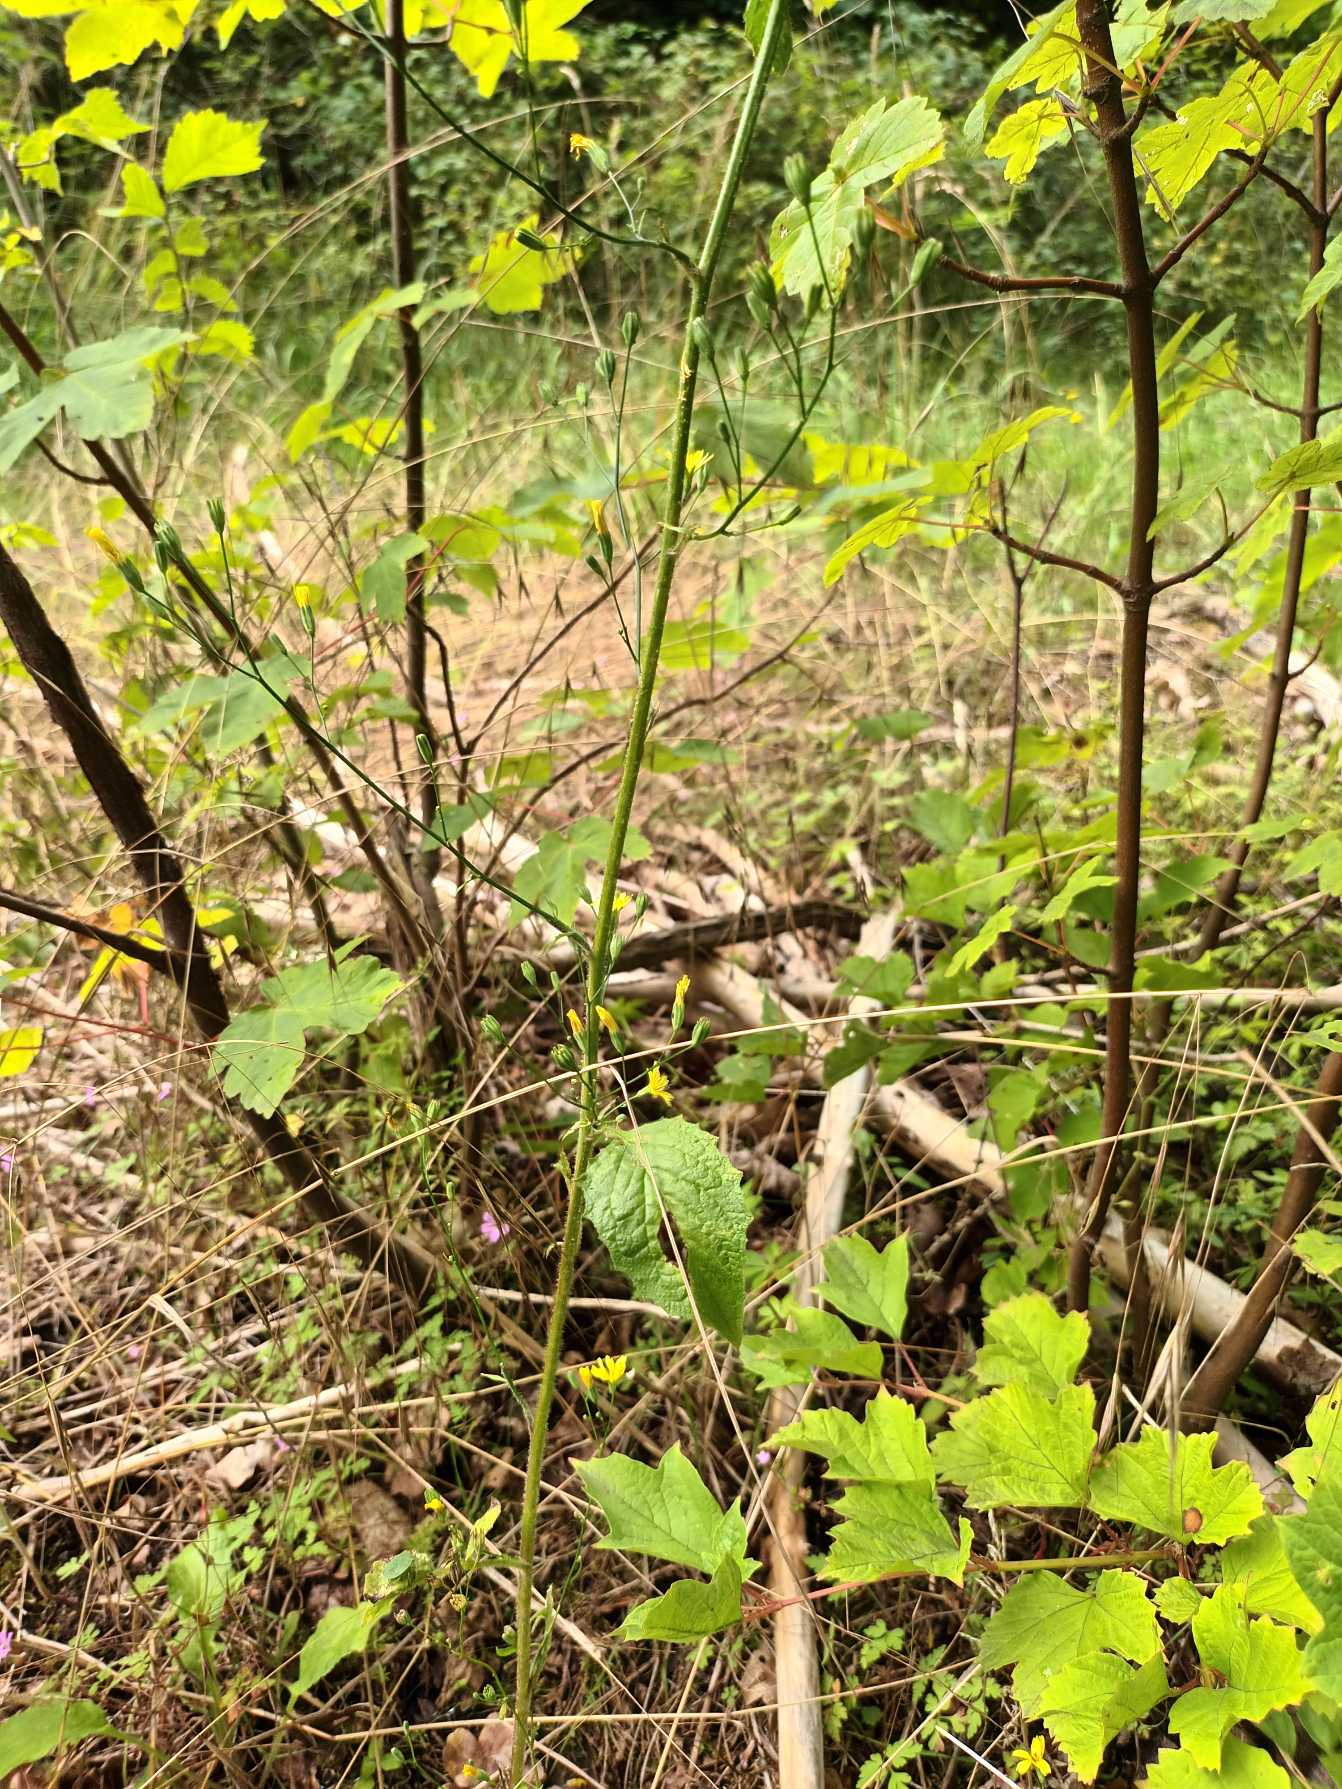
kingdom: Plantae
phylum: Tracheophyta
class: Magnoliopsida
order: Asterales
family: Asteraceae
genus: Lapsana
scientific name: Lapsana communis
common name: Haremad
